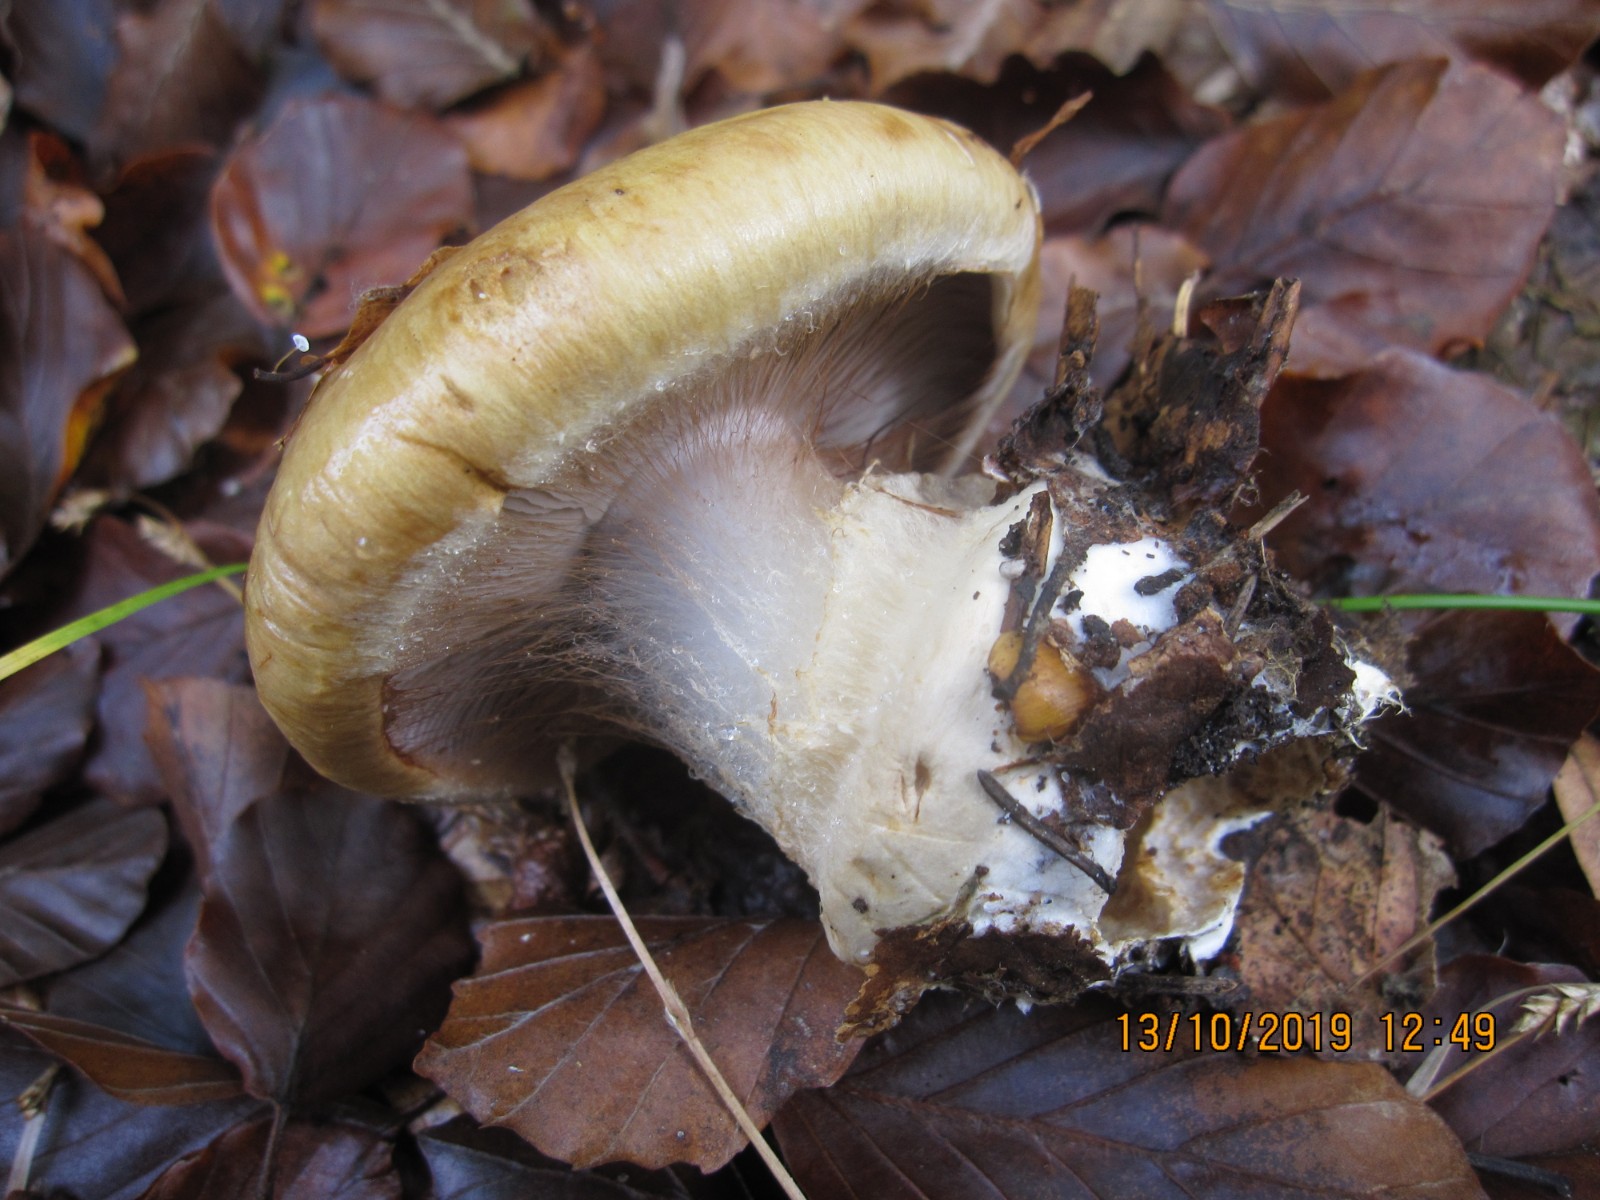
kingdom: Fungi
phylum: Basidiomycota
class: Agaricomycetes
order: Agaricales
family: Cortinariaceae
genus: Cortinarius
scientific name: Cortinarius anserinus
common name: bøge-slørhat
